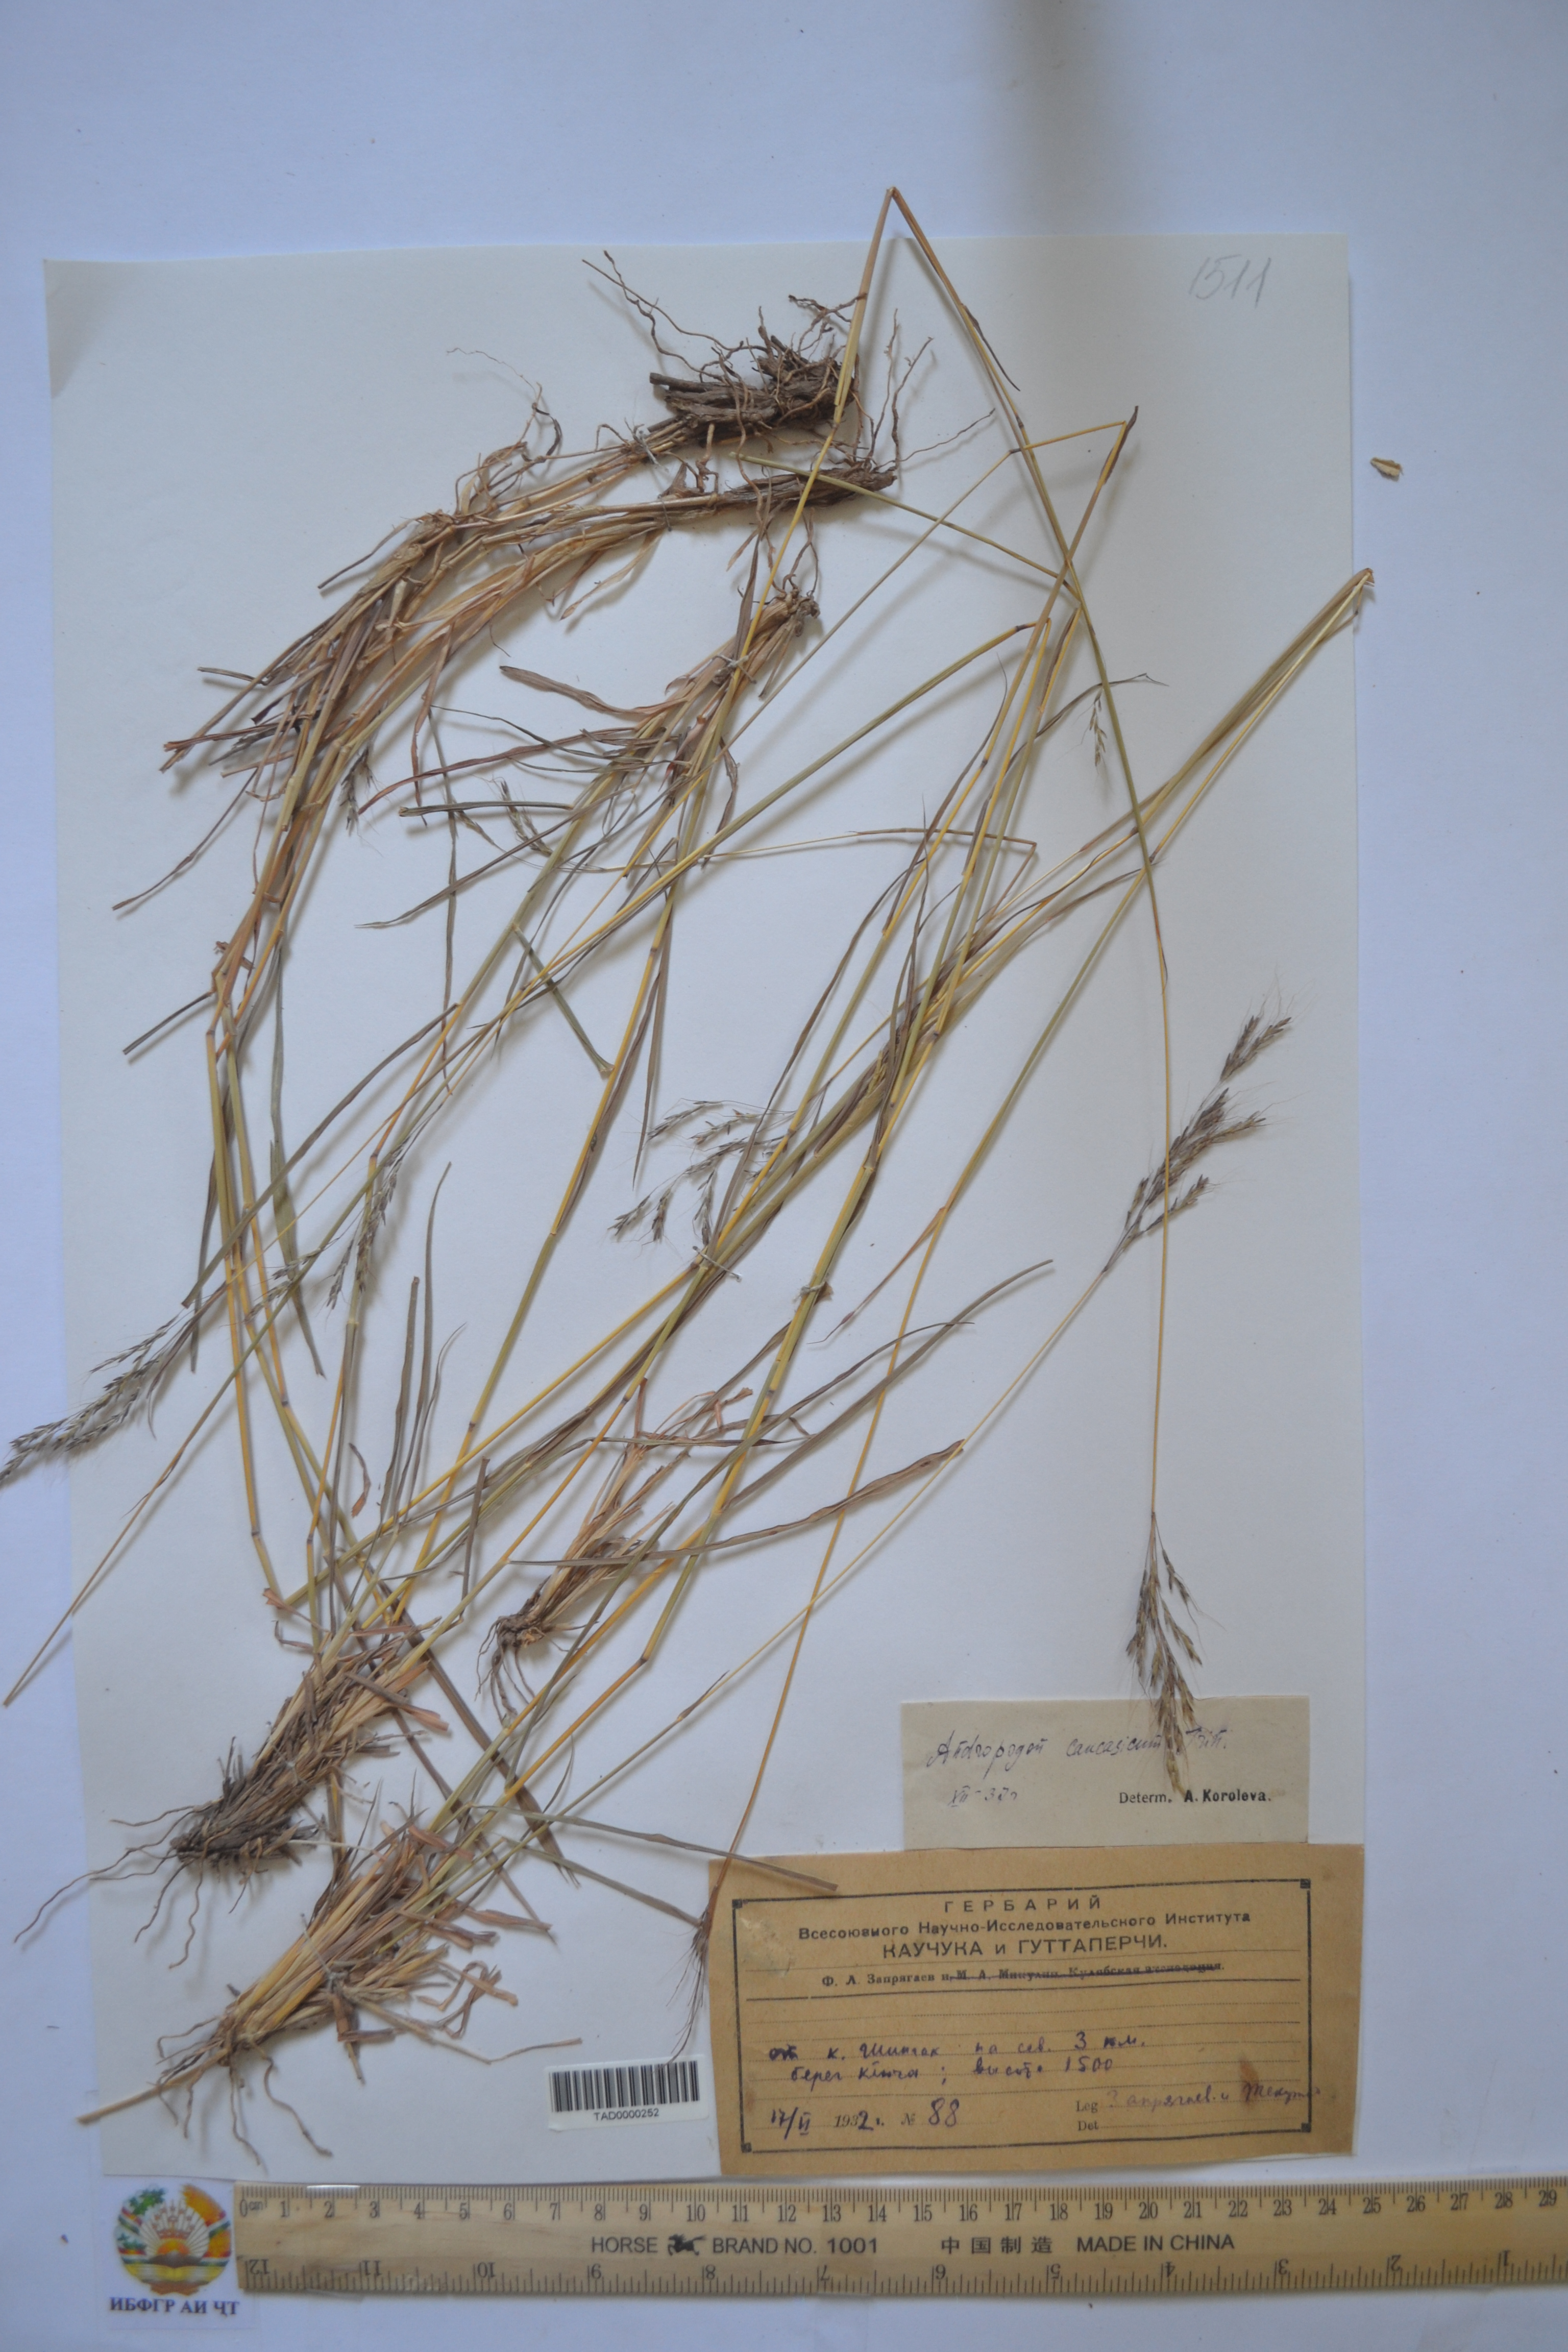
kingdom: Plantae
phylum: Tracheophyta
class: Liliopsida
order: Poales
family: Poaceae
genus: Bothriochloa
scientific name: Bothriochloa bladhii
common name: Caucasian bluestem
